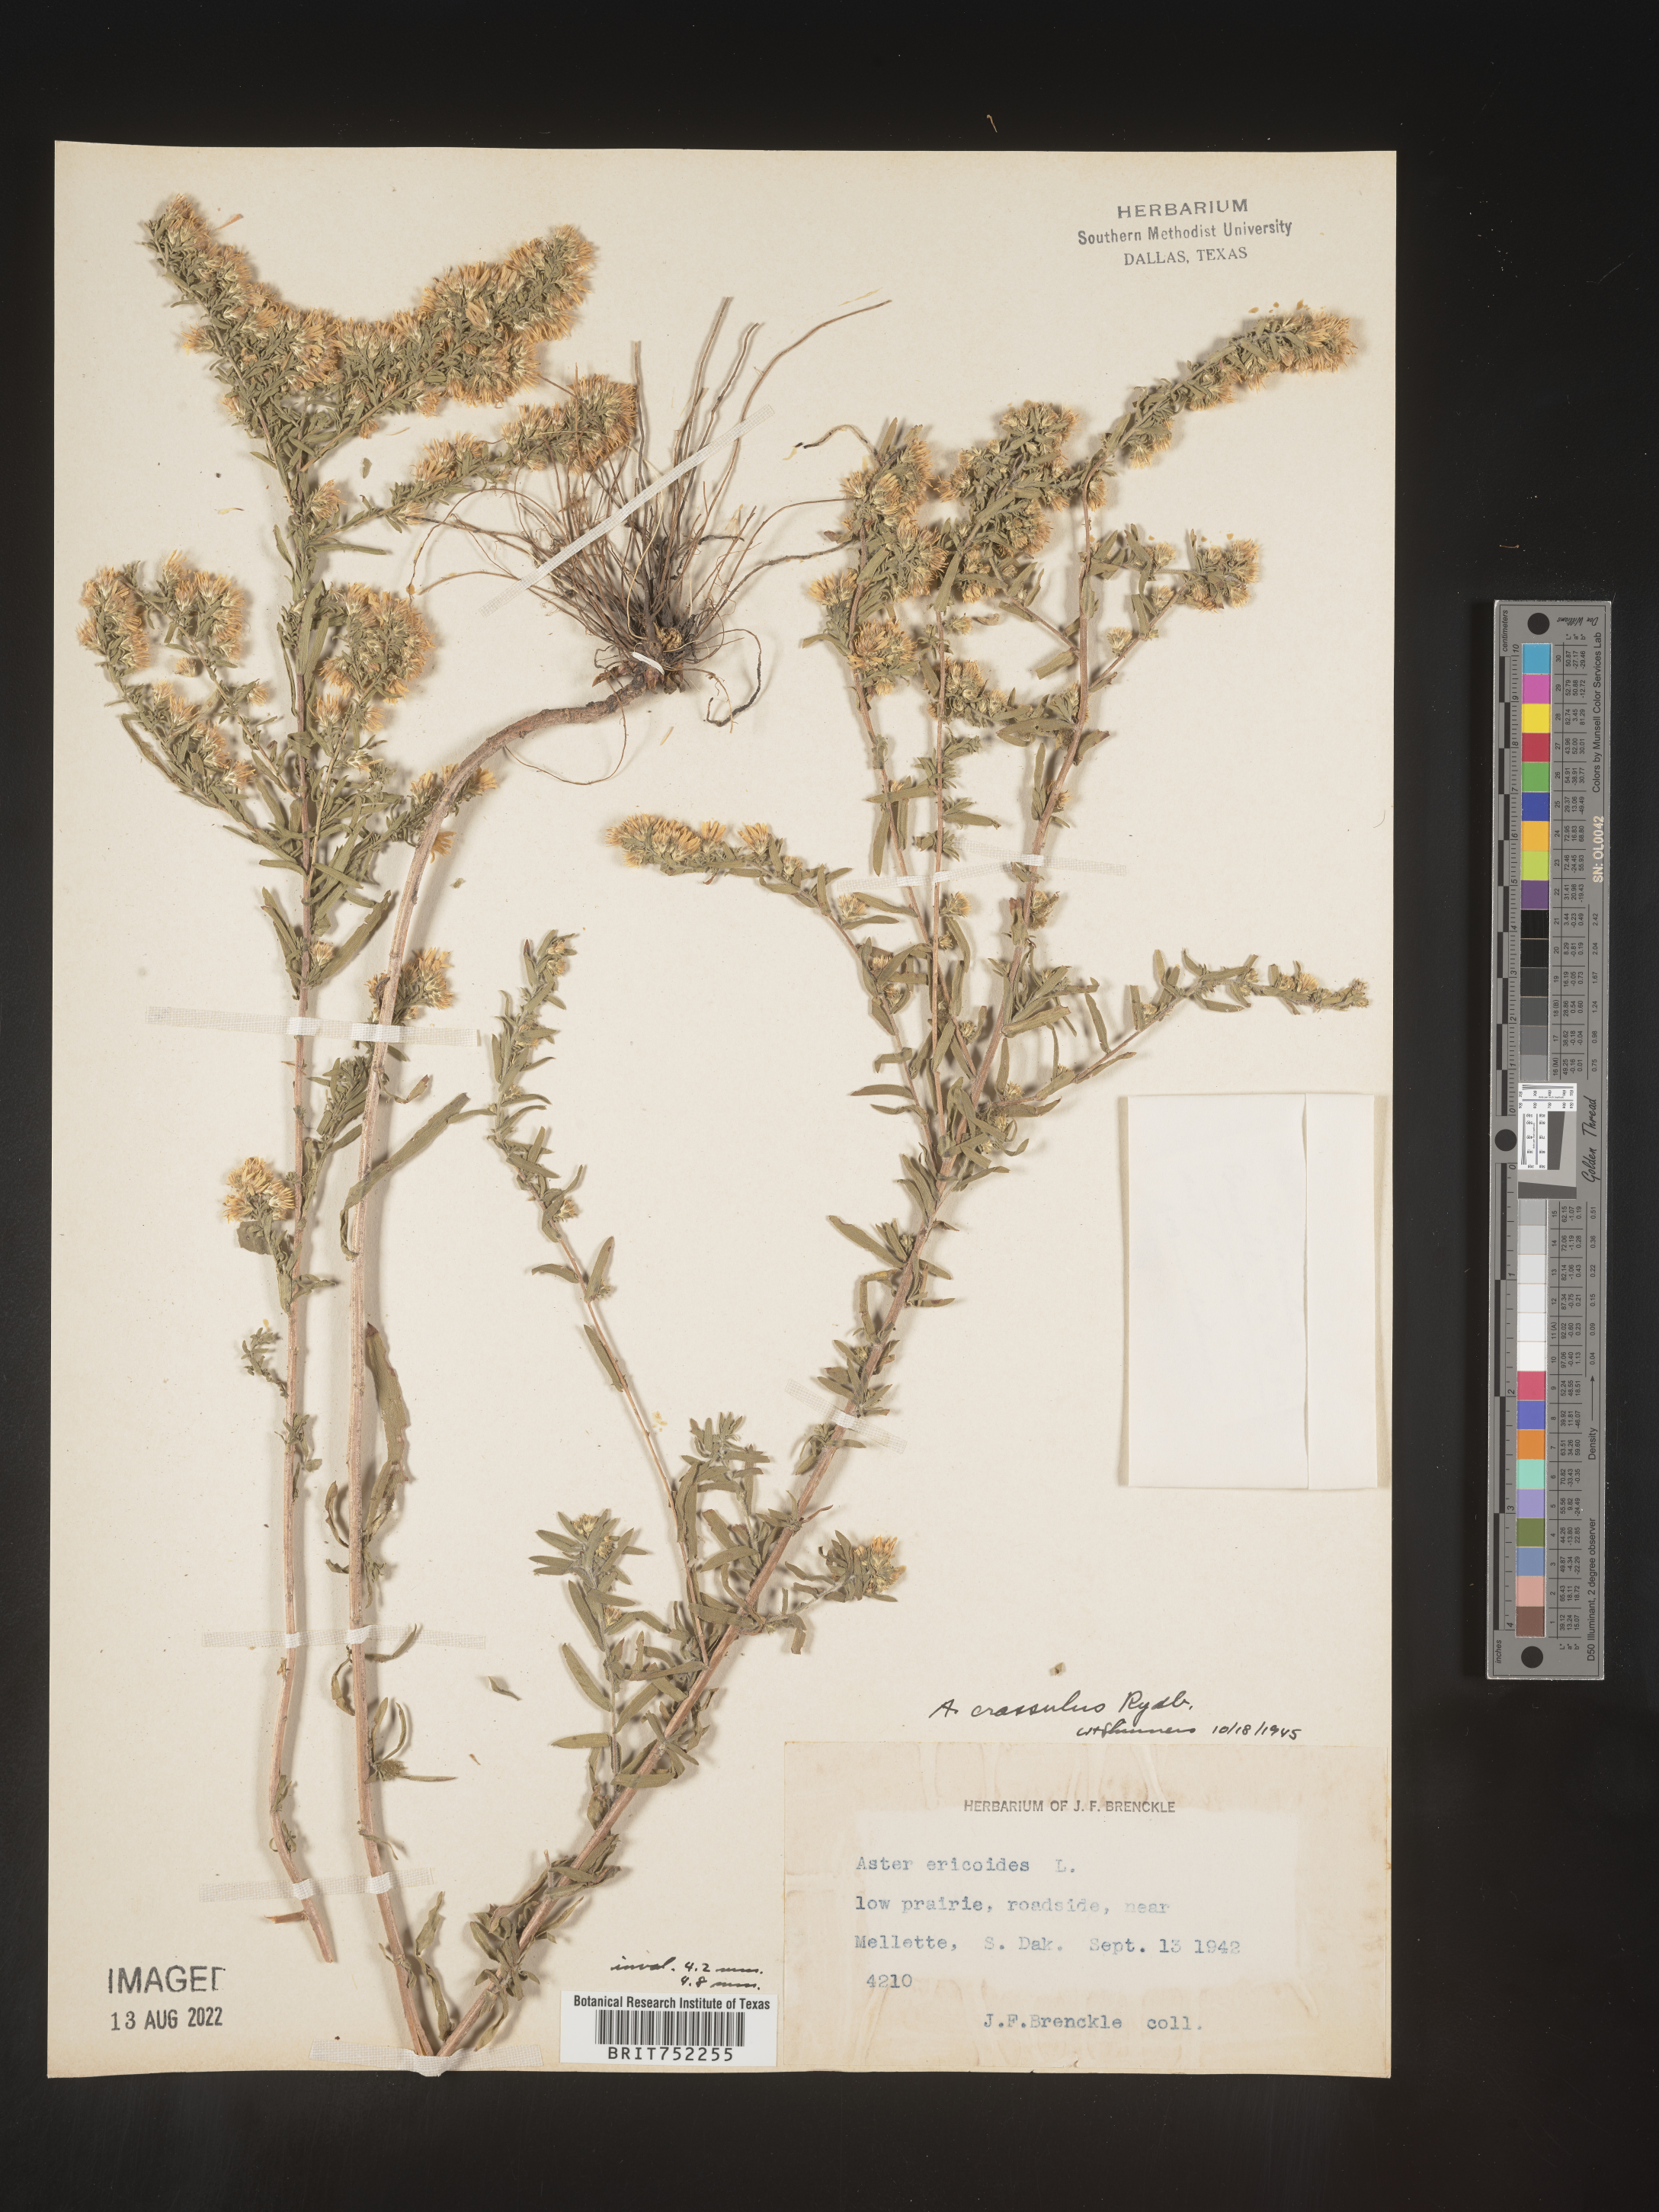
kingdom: Plantae
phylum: Tracheophyta
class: Magnoliopsida
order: Asterales
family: Asteraceae
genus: Symphyotrichum
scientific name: Symphyotrichum ericoides
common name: Heath aster
